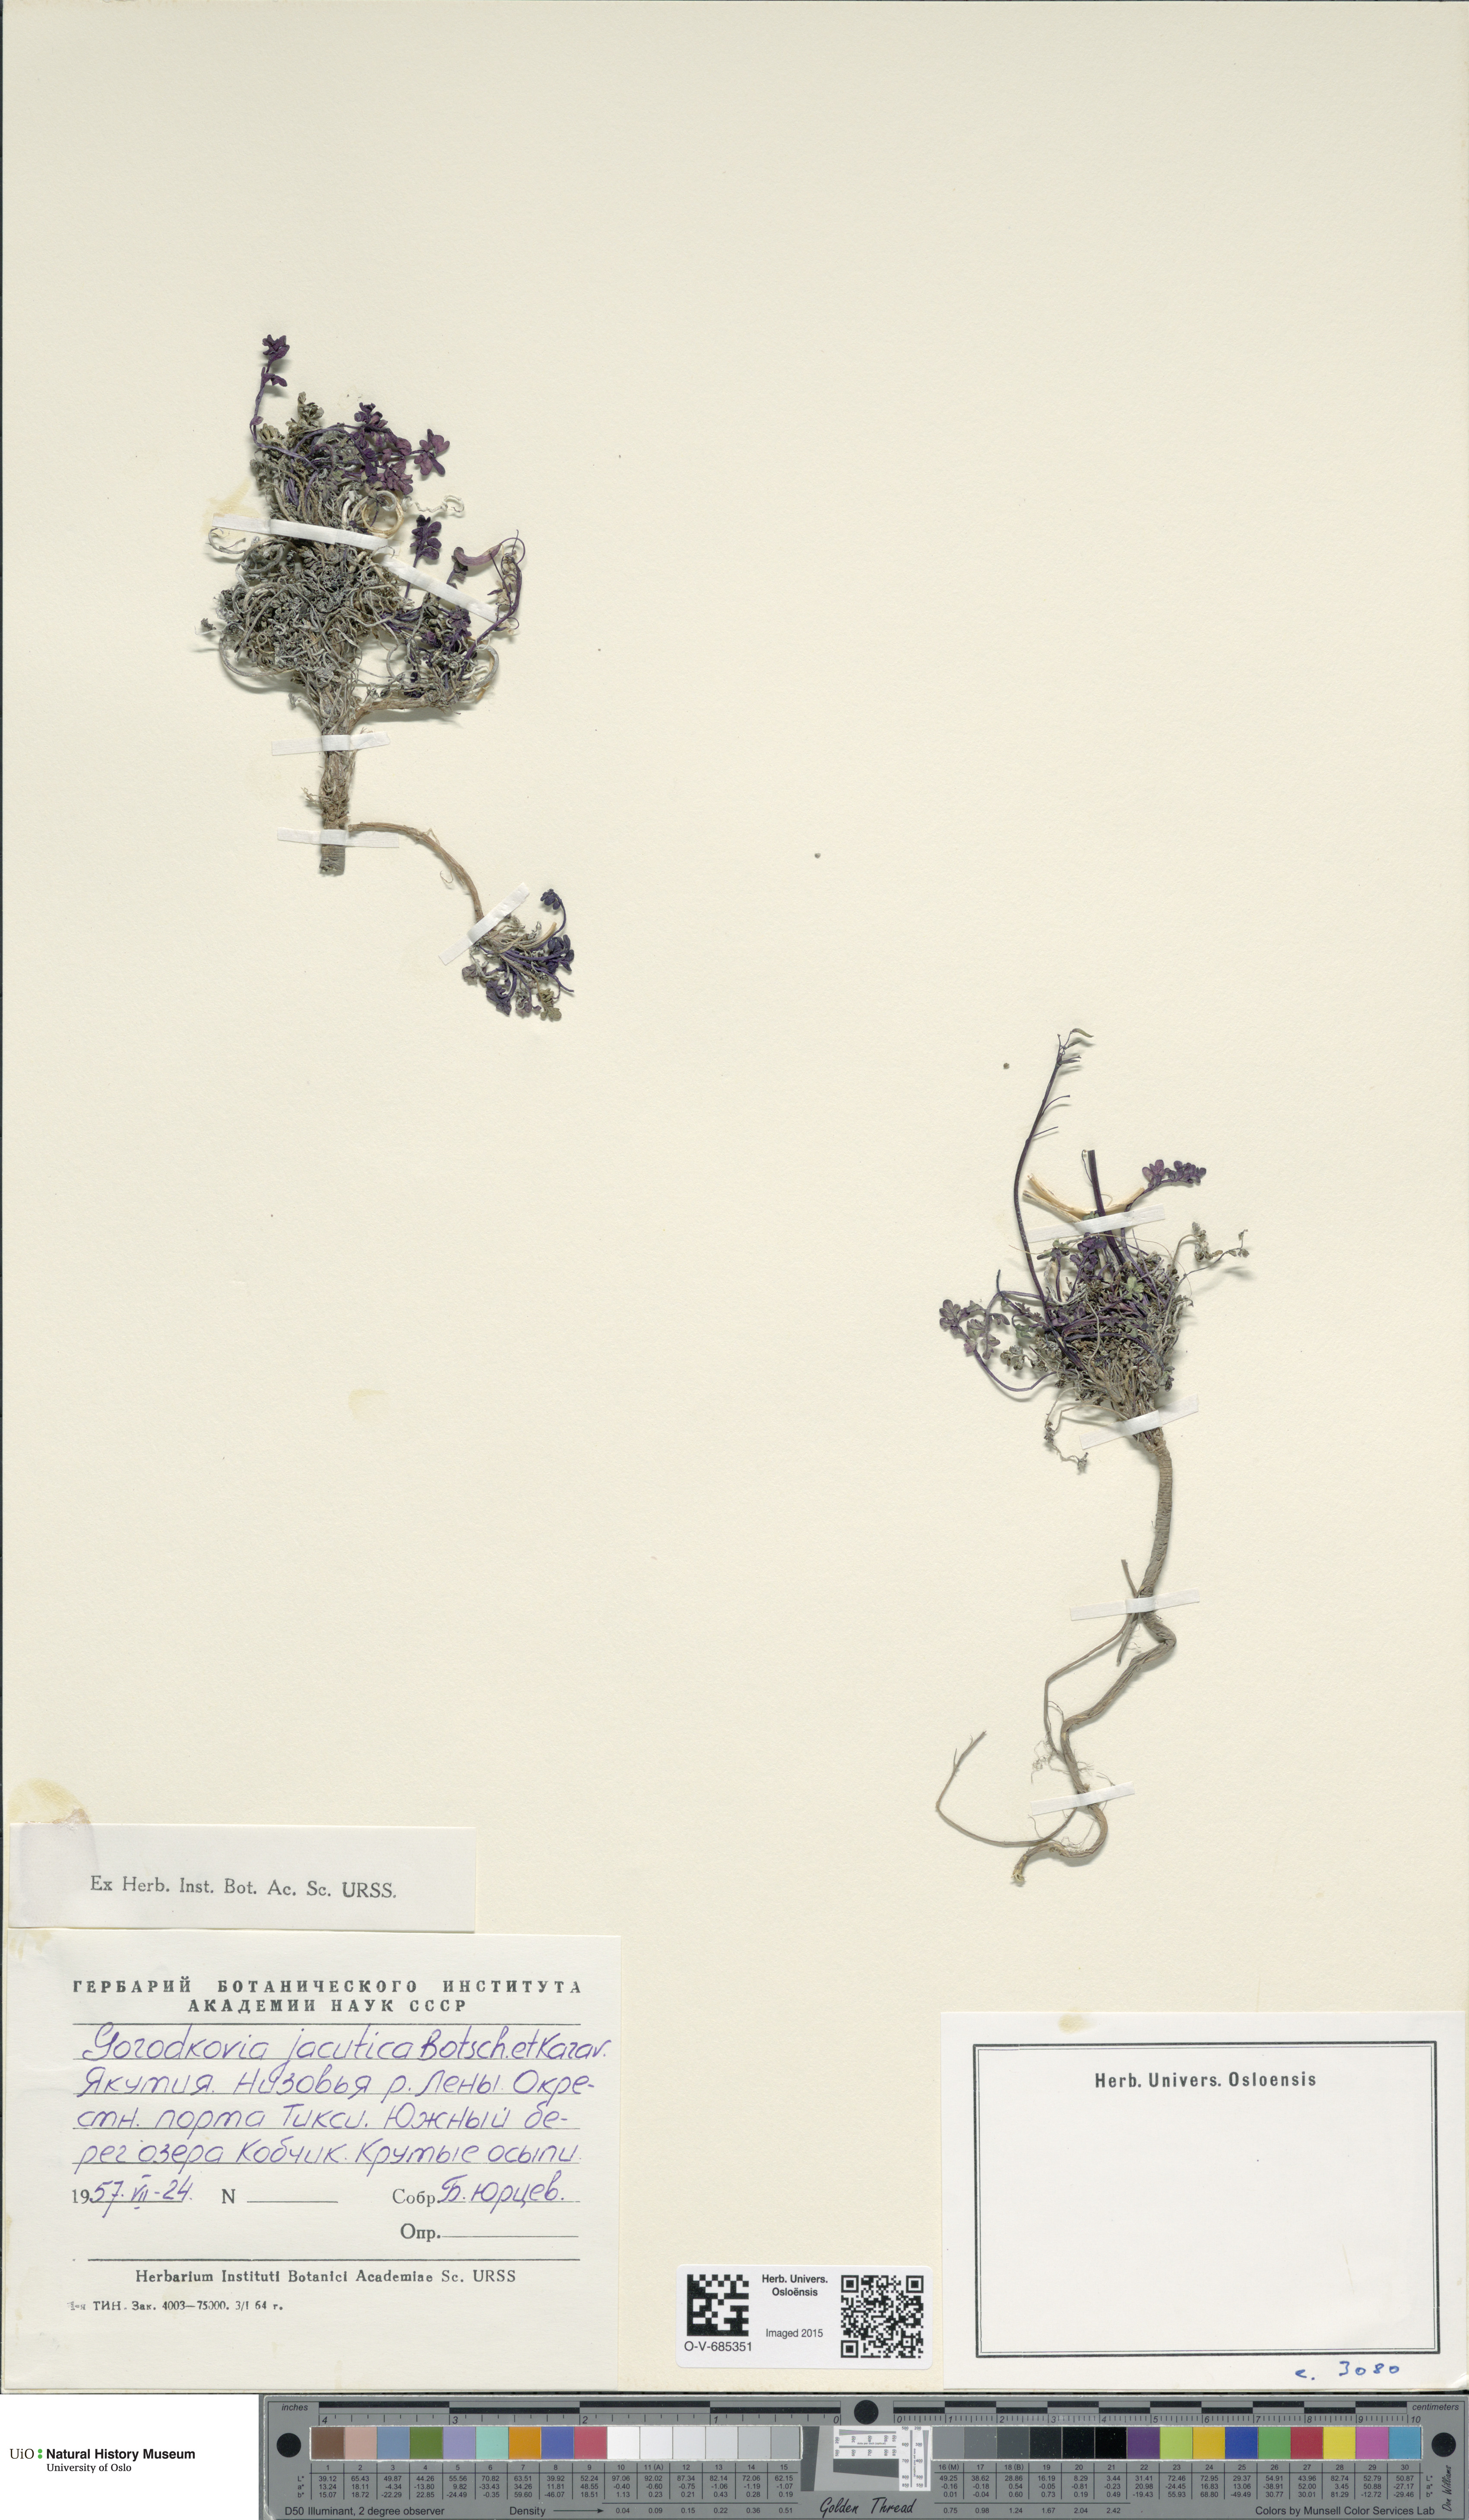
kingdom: Plantae
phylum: Tracheophyta
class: Magnoliopsida
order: Brassicales
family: Brassicaceae
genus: Smelowskia
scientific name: Smelowskia jacutica
